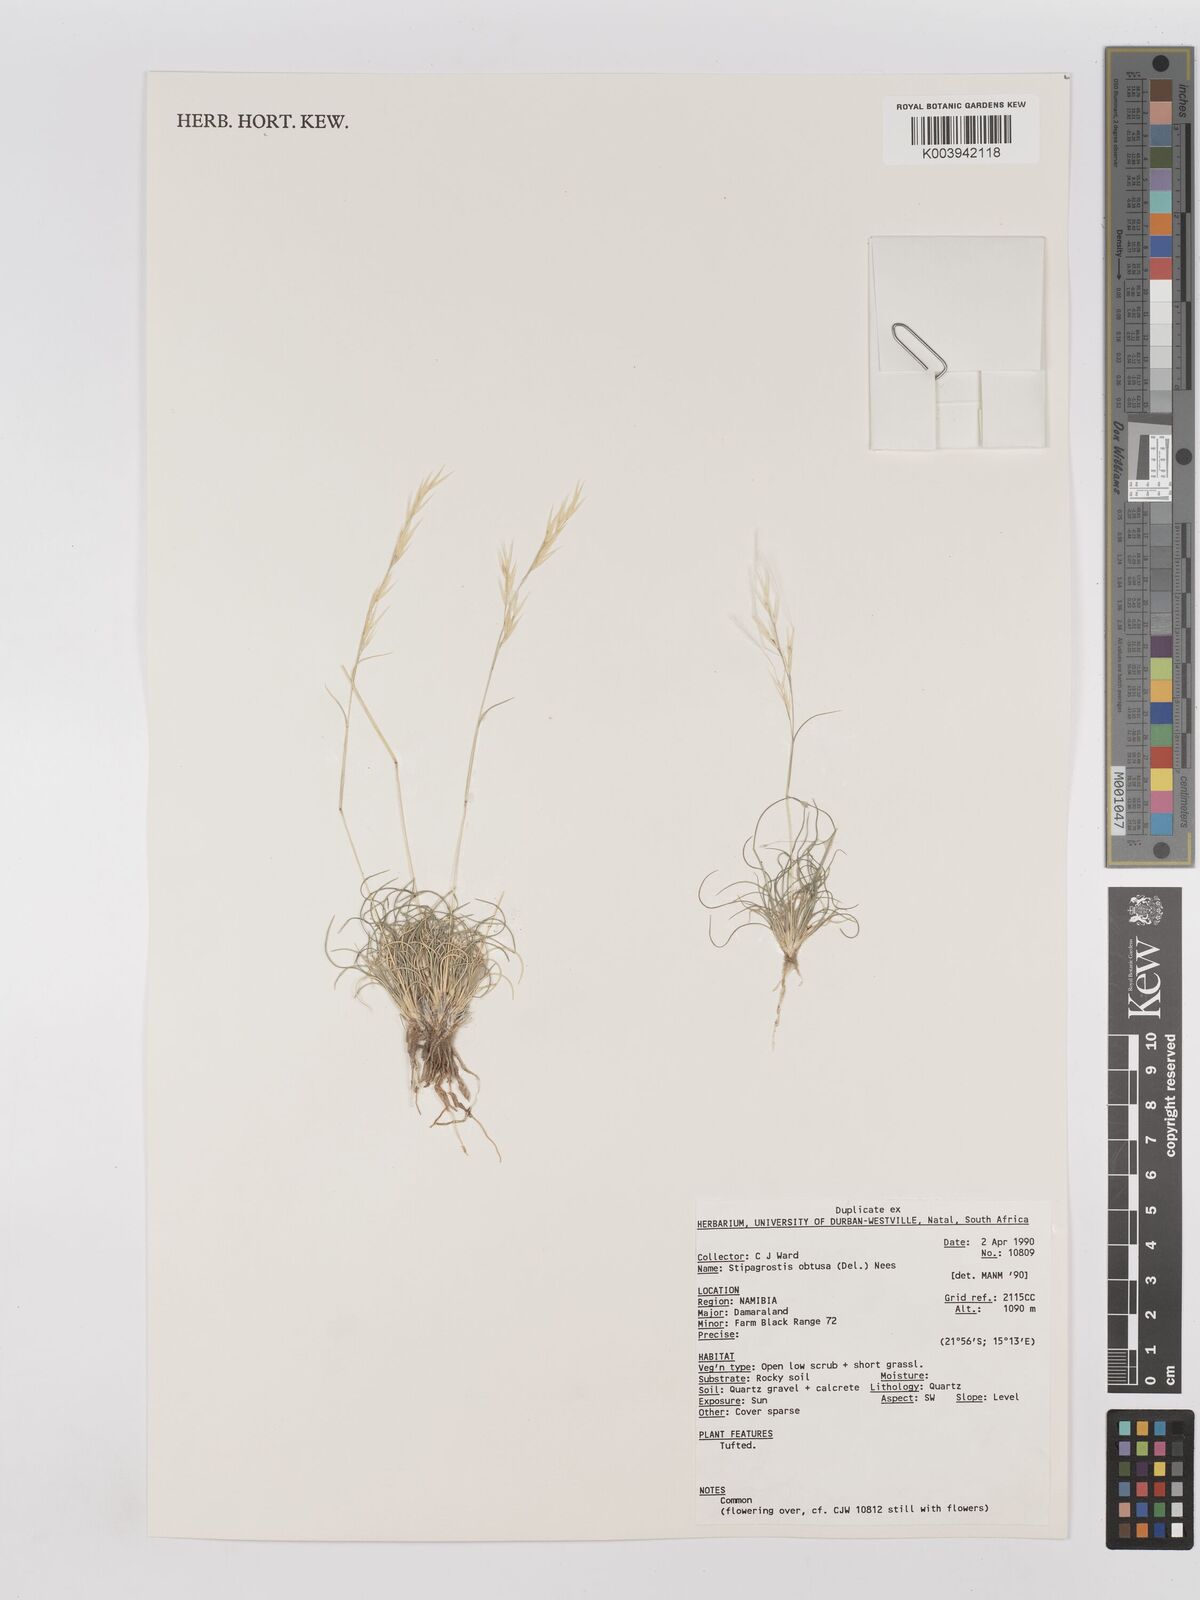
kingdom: Plantae
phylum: Tracheophyta
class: Liliopsida
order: Poales
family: Poaceae
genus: Stipagrostis
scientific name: Stipagrostis obtusa
